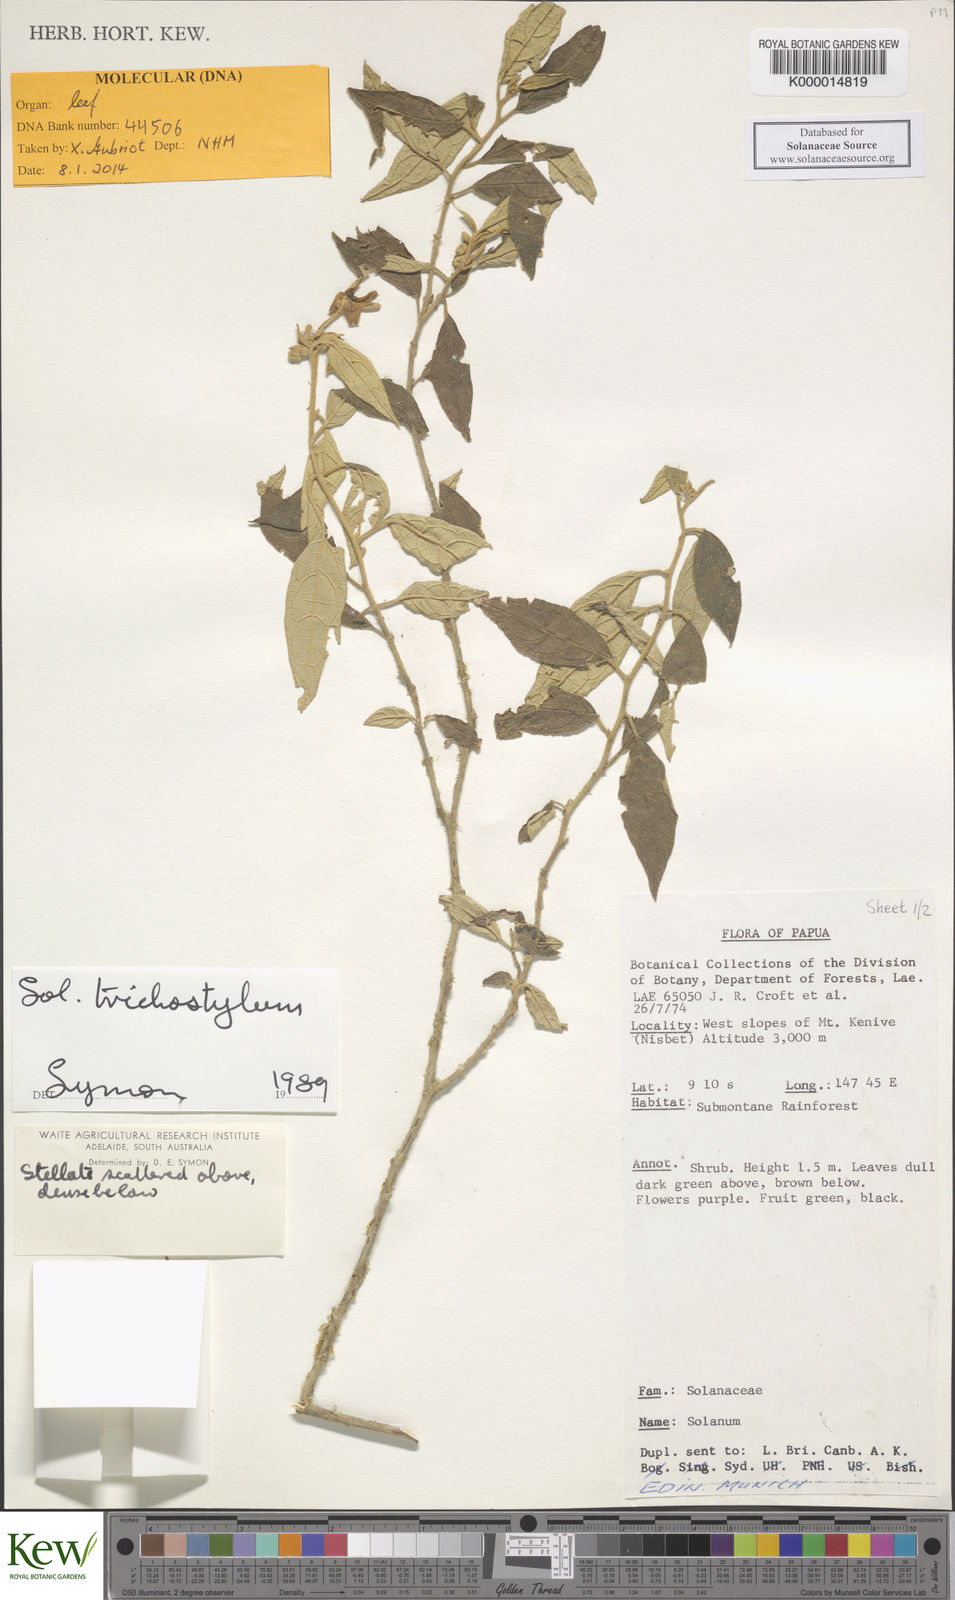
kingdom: Plantae
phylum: Tracheophyta
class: Magnoliopsida
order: Solanales
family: Solanaceae
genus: Solanum
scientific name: Solanum trichostylum
